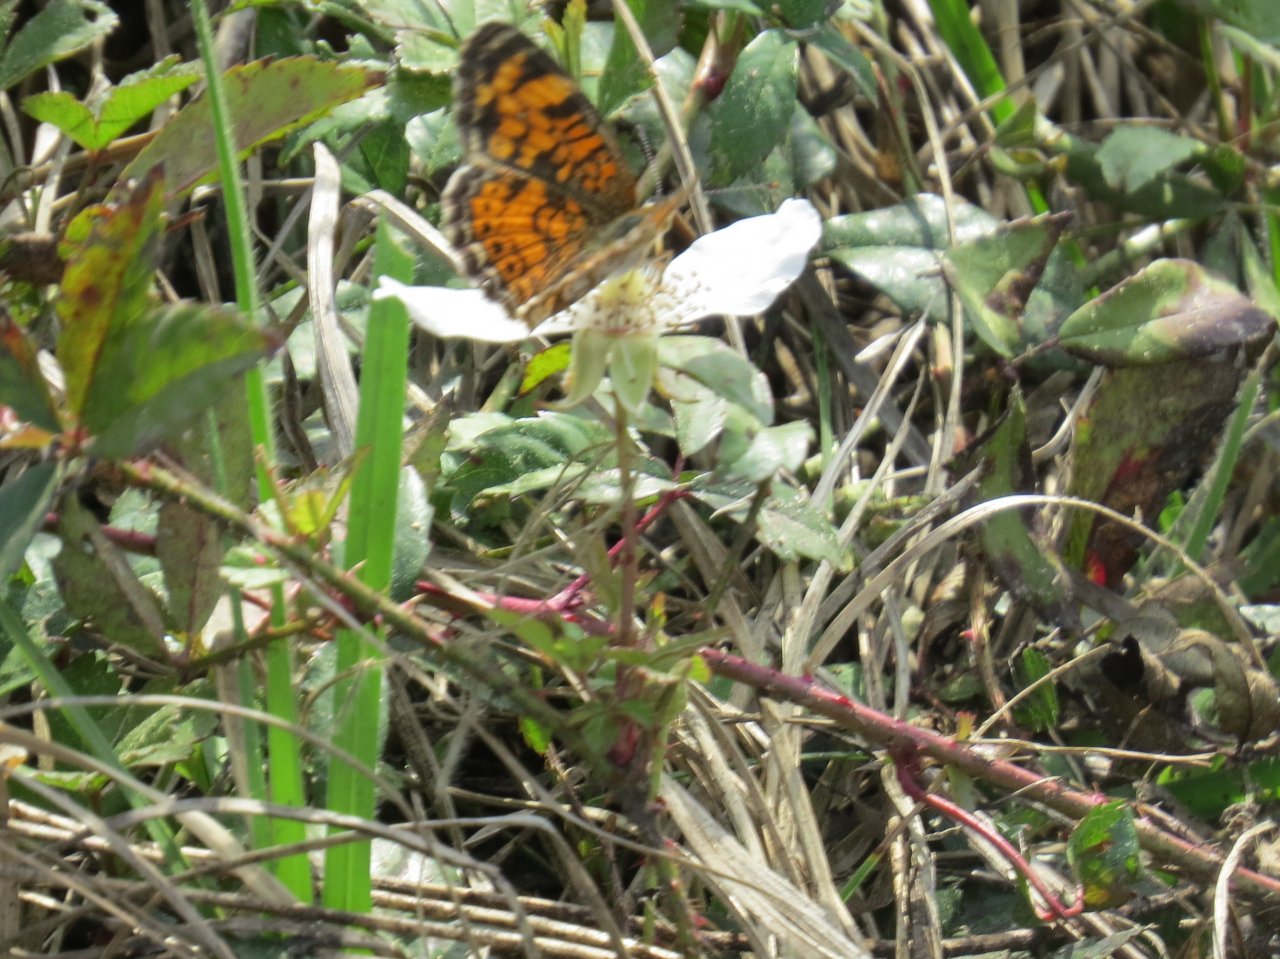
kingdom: Animalia
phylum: Arthropoda
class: Insecta
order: Lepidoptera
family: Nymphalidae
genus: Phyciodes
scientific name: Phyciodes tharos
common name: Pearl Crescent
